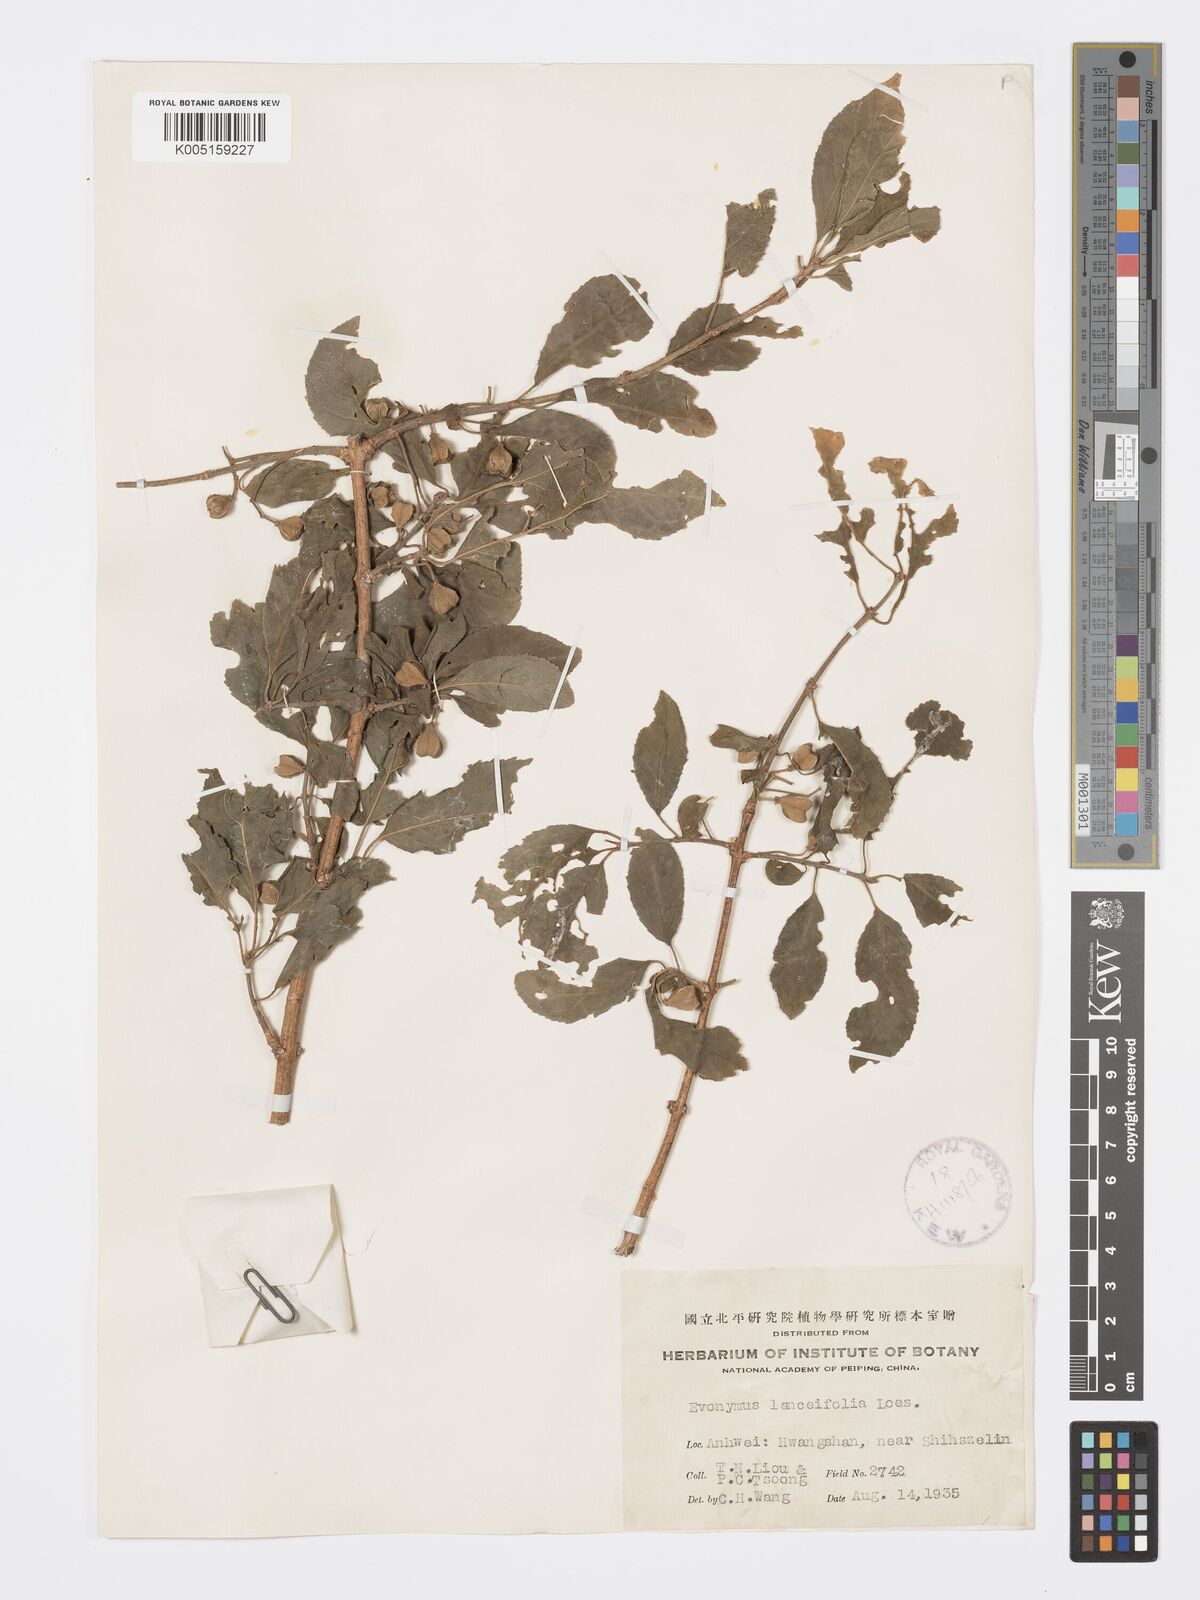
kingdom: Plantae
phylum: Tracheophyta
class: Magnoliopsida
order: Celastrales
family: Celastraceae
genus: Euonymus
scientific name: Euonymus hamiltonianus
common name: Hamilton's spindletree
